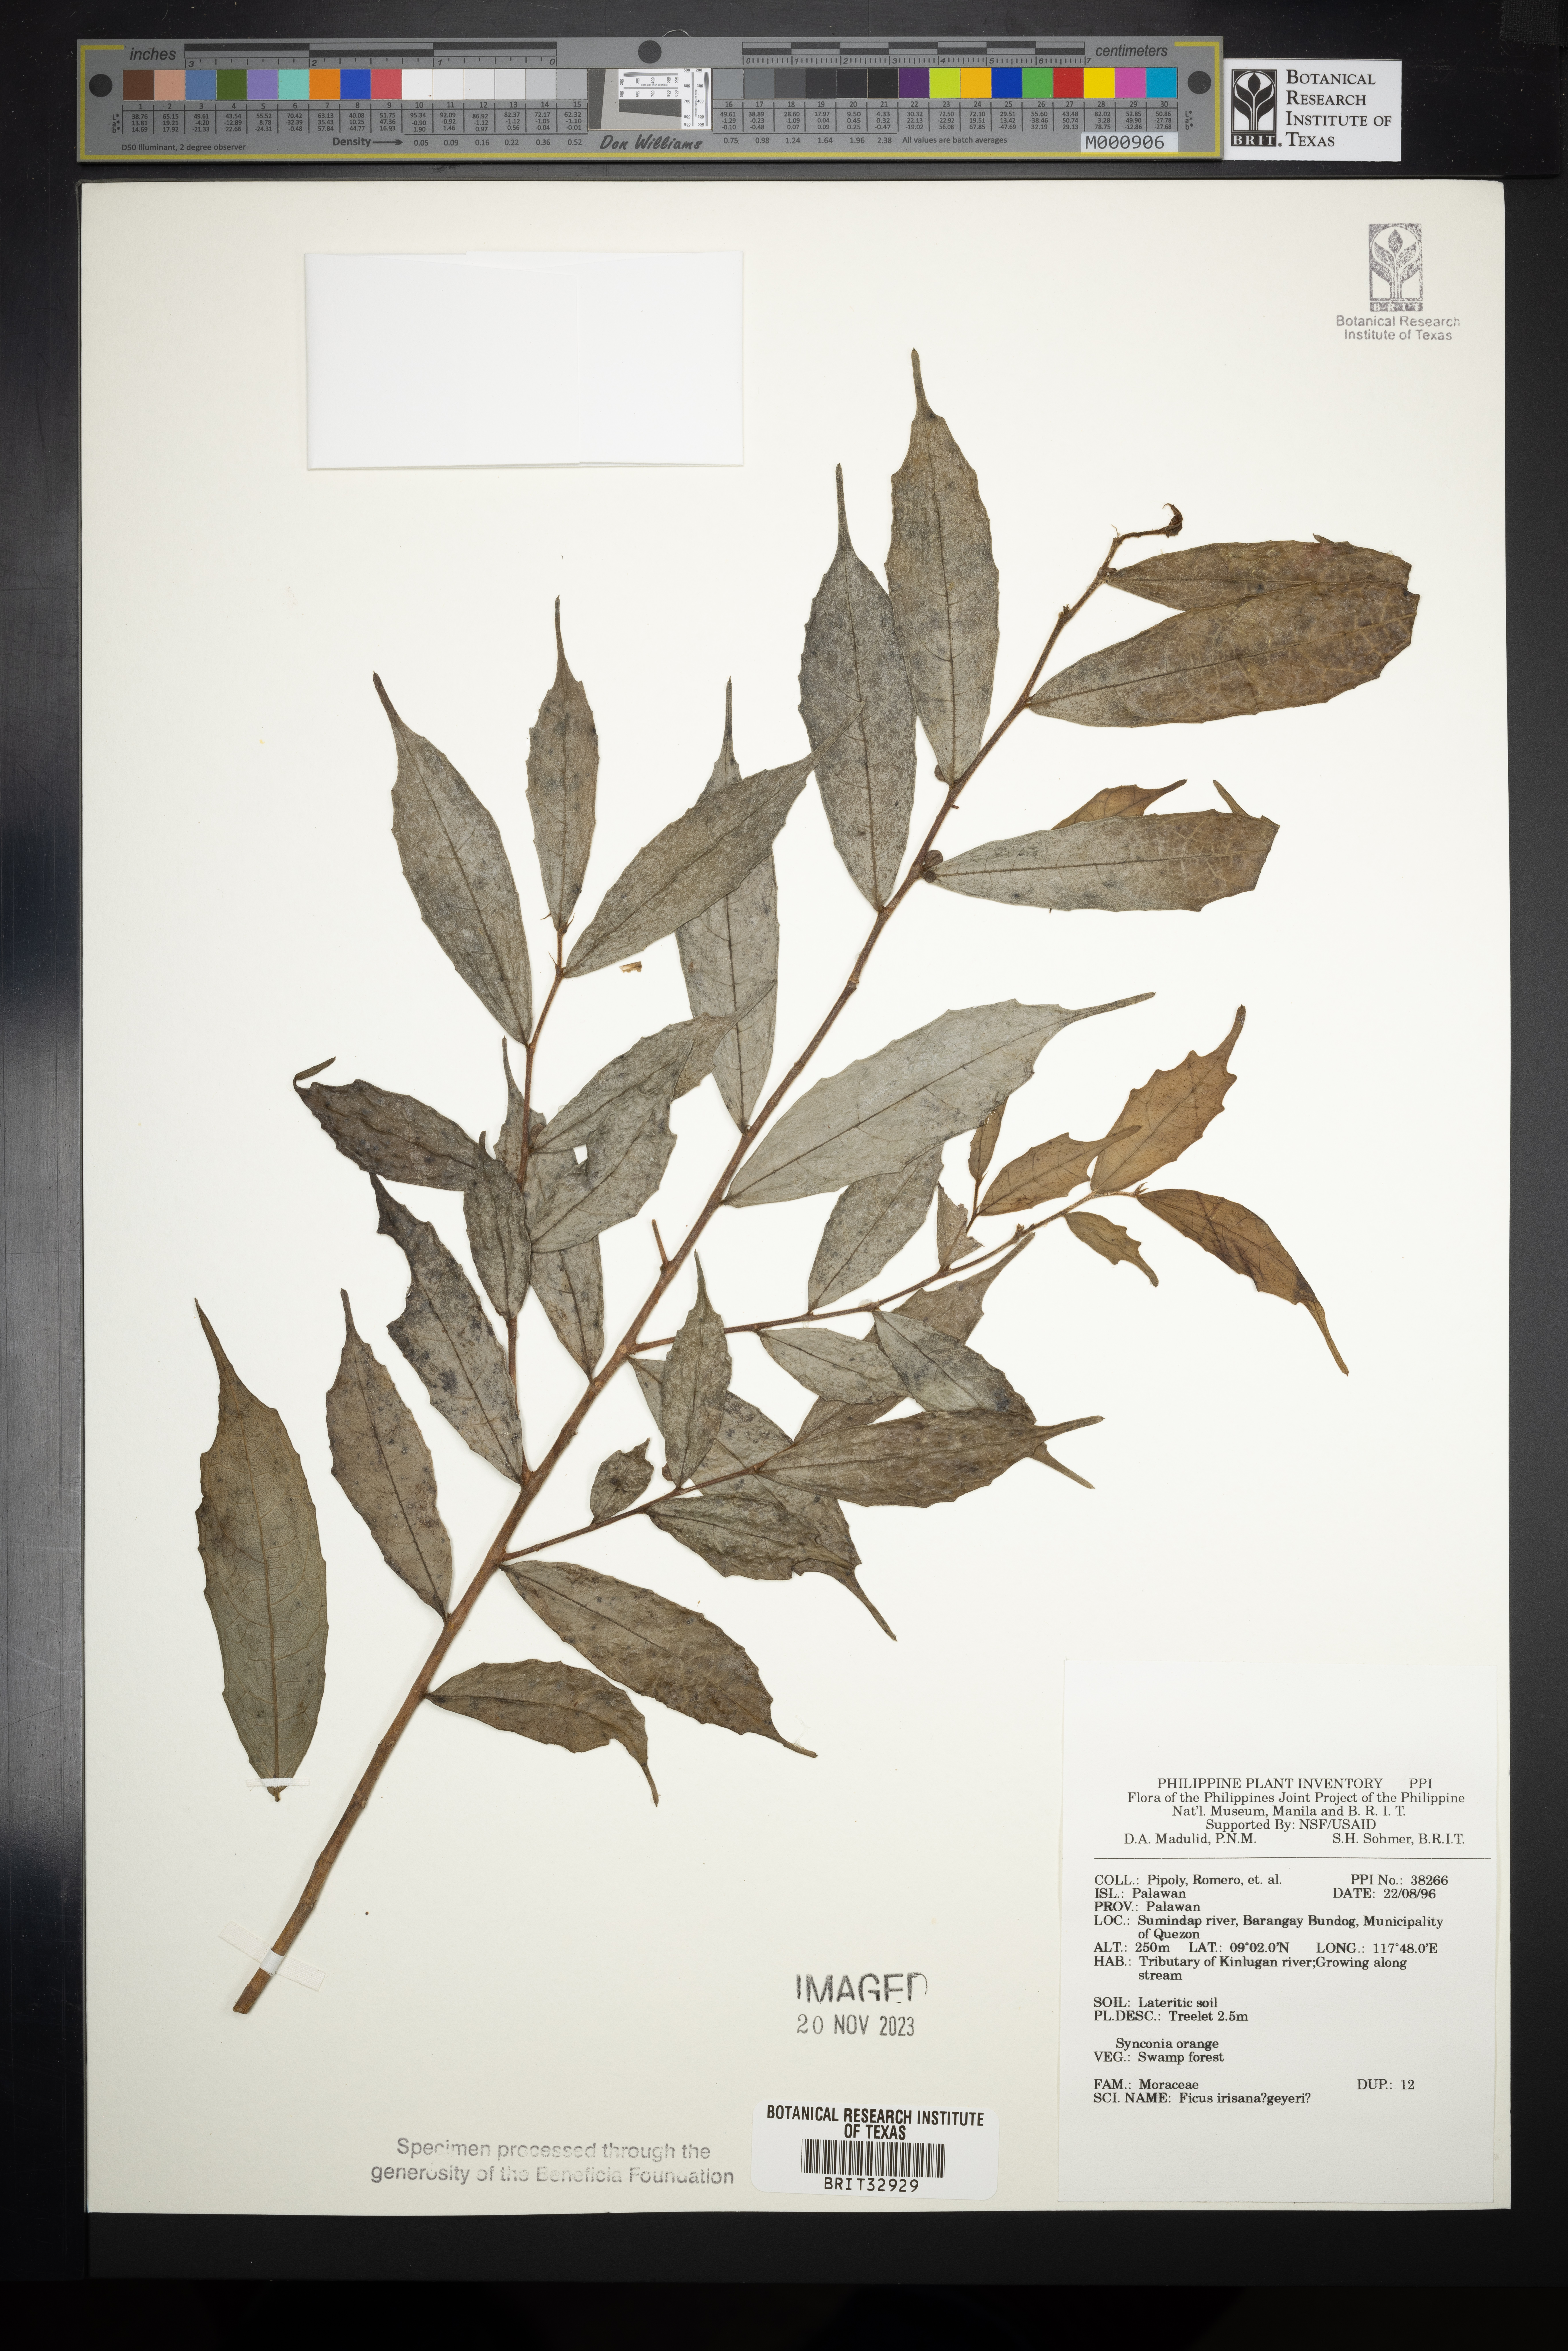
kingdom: Plantae
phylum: Tracheophyta
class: Magnoliopsida
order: Rosales
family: Moraceae
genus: Ficus
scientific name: Ficus
